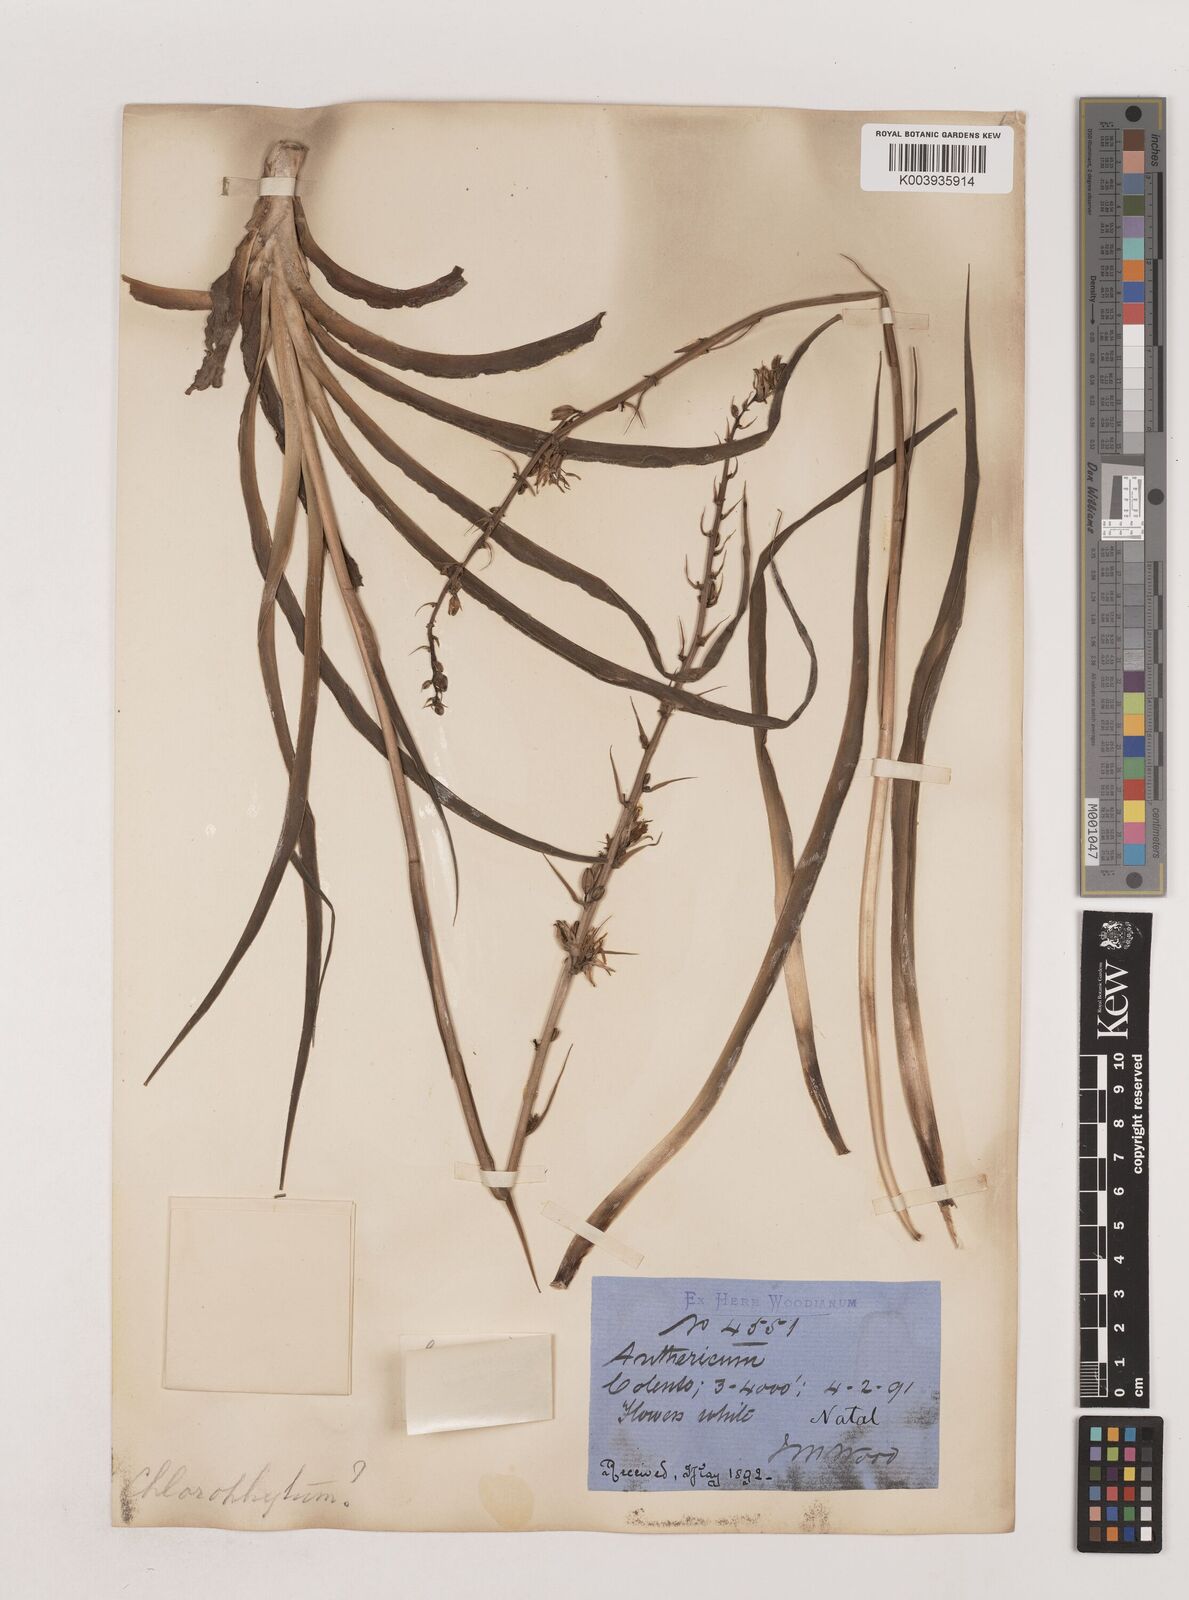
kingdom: Plantae
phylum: Tracheophyta
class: Liliopsida
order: Asparagales
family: Asparagaceae
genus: Chlorophytum
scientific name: Chlorophytum bowkeri
